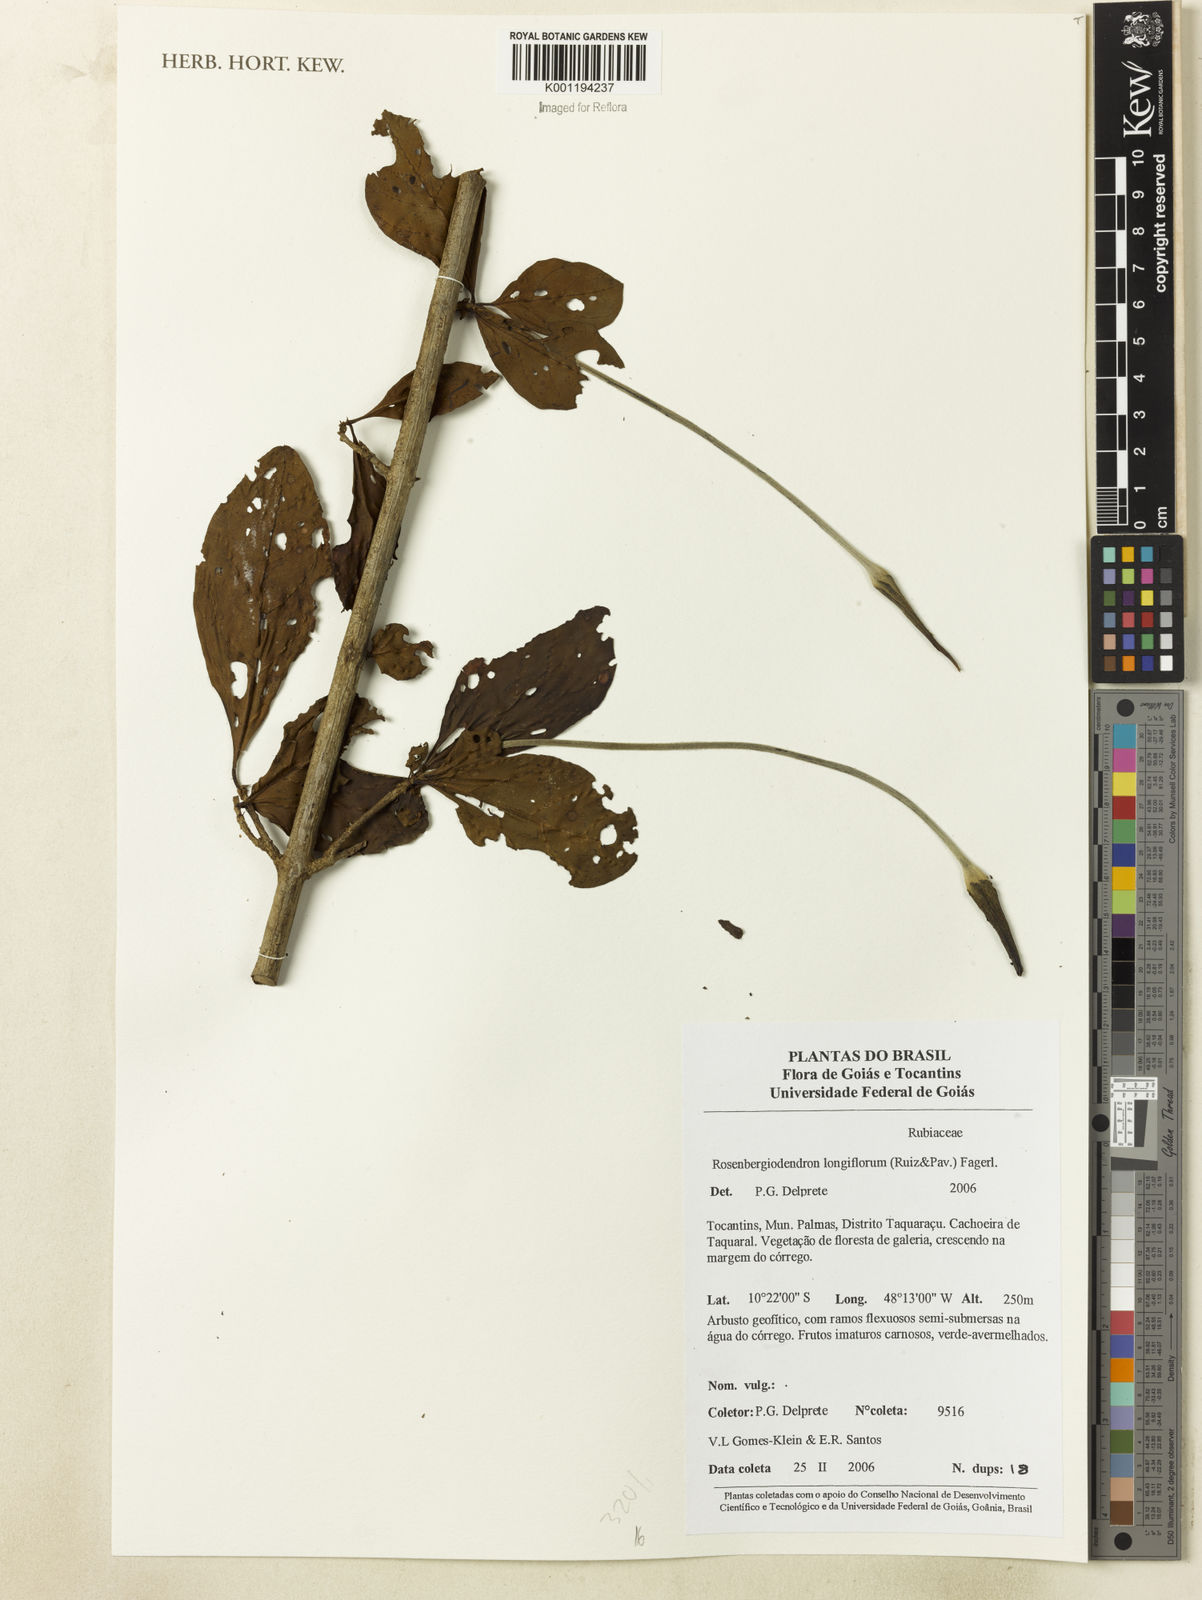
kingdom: Plantae
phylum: Tracheophyta
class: Magnoliopsida
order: Gentianales
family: Rubiaceae
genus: Rosenbergiodendron
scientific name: Rosenbergiodendron longiflorum
